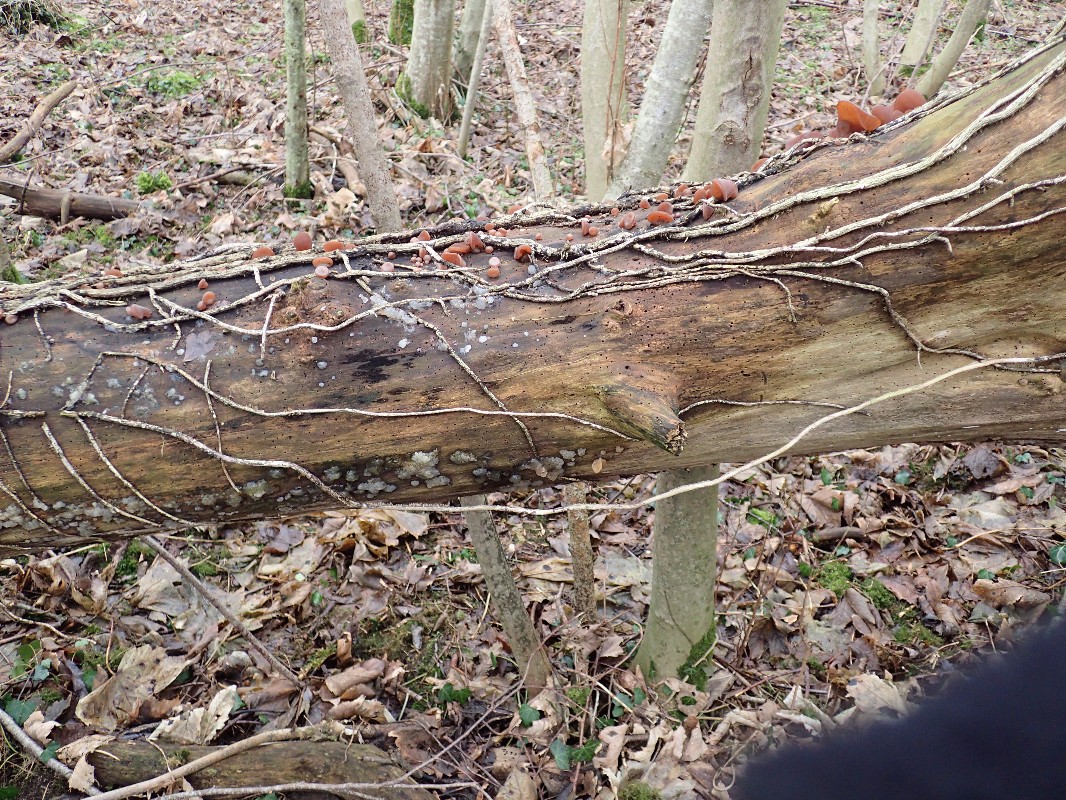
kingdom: Fungi
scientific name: Fungi
